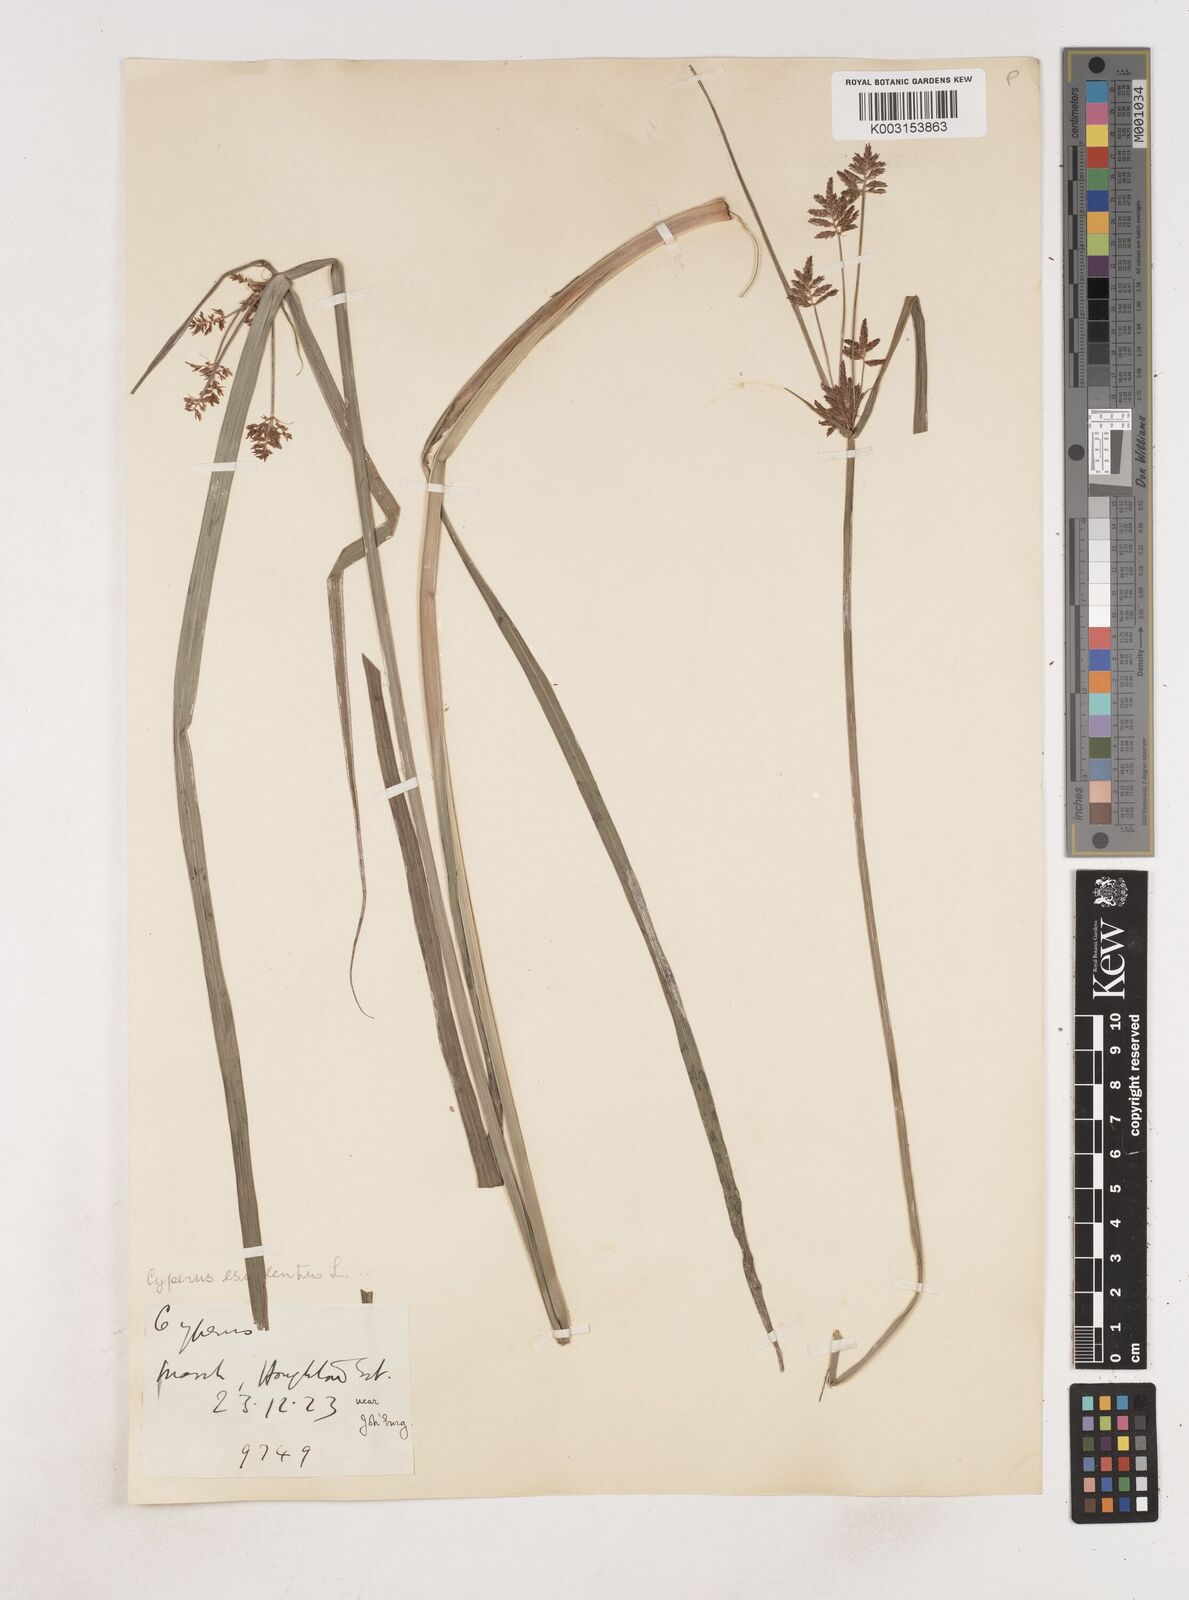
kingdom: Plantae
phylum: Tracheophyta
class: Liliopsida
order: Poales
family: Cyperaceae
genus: Cyperus
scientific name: Cyperus
